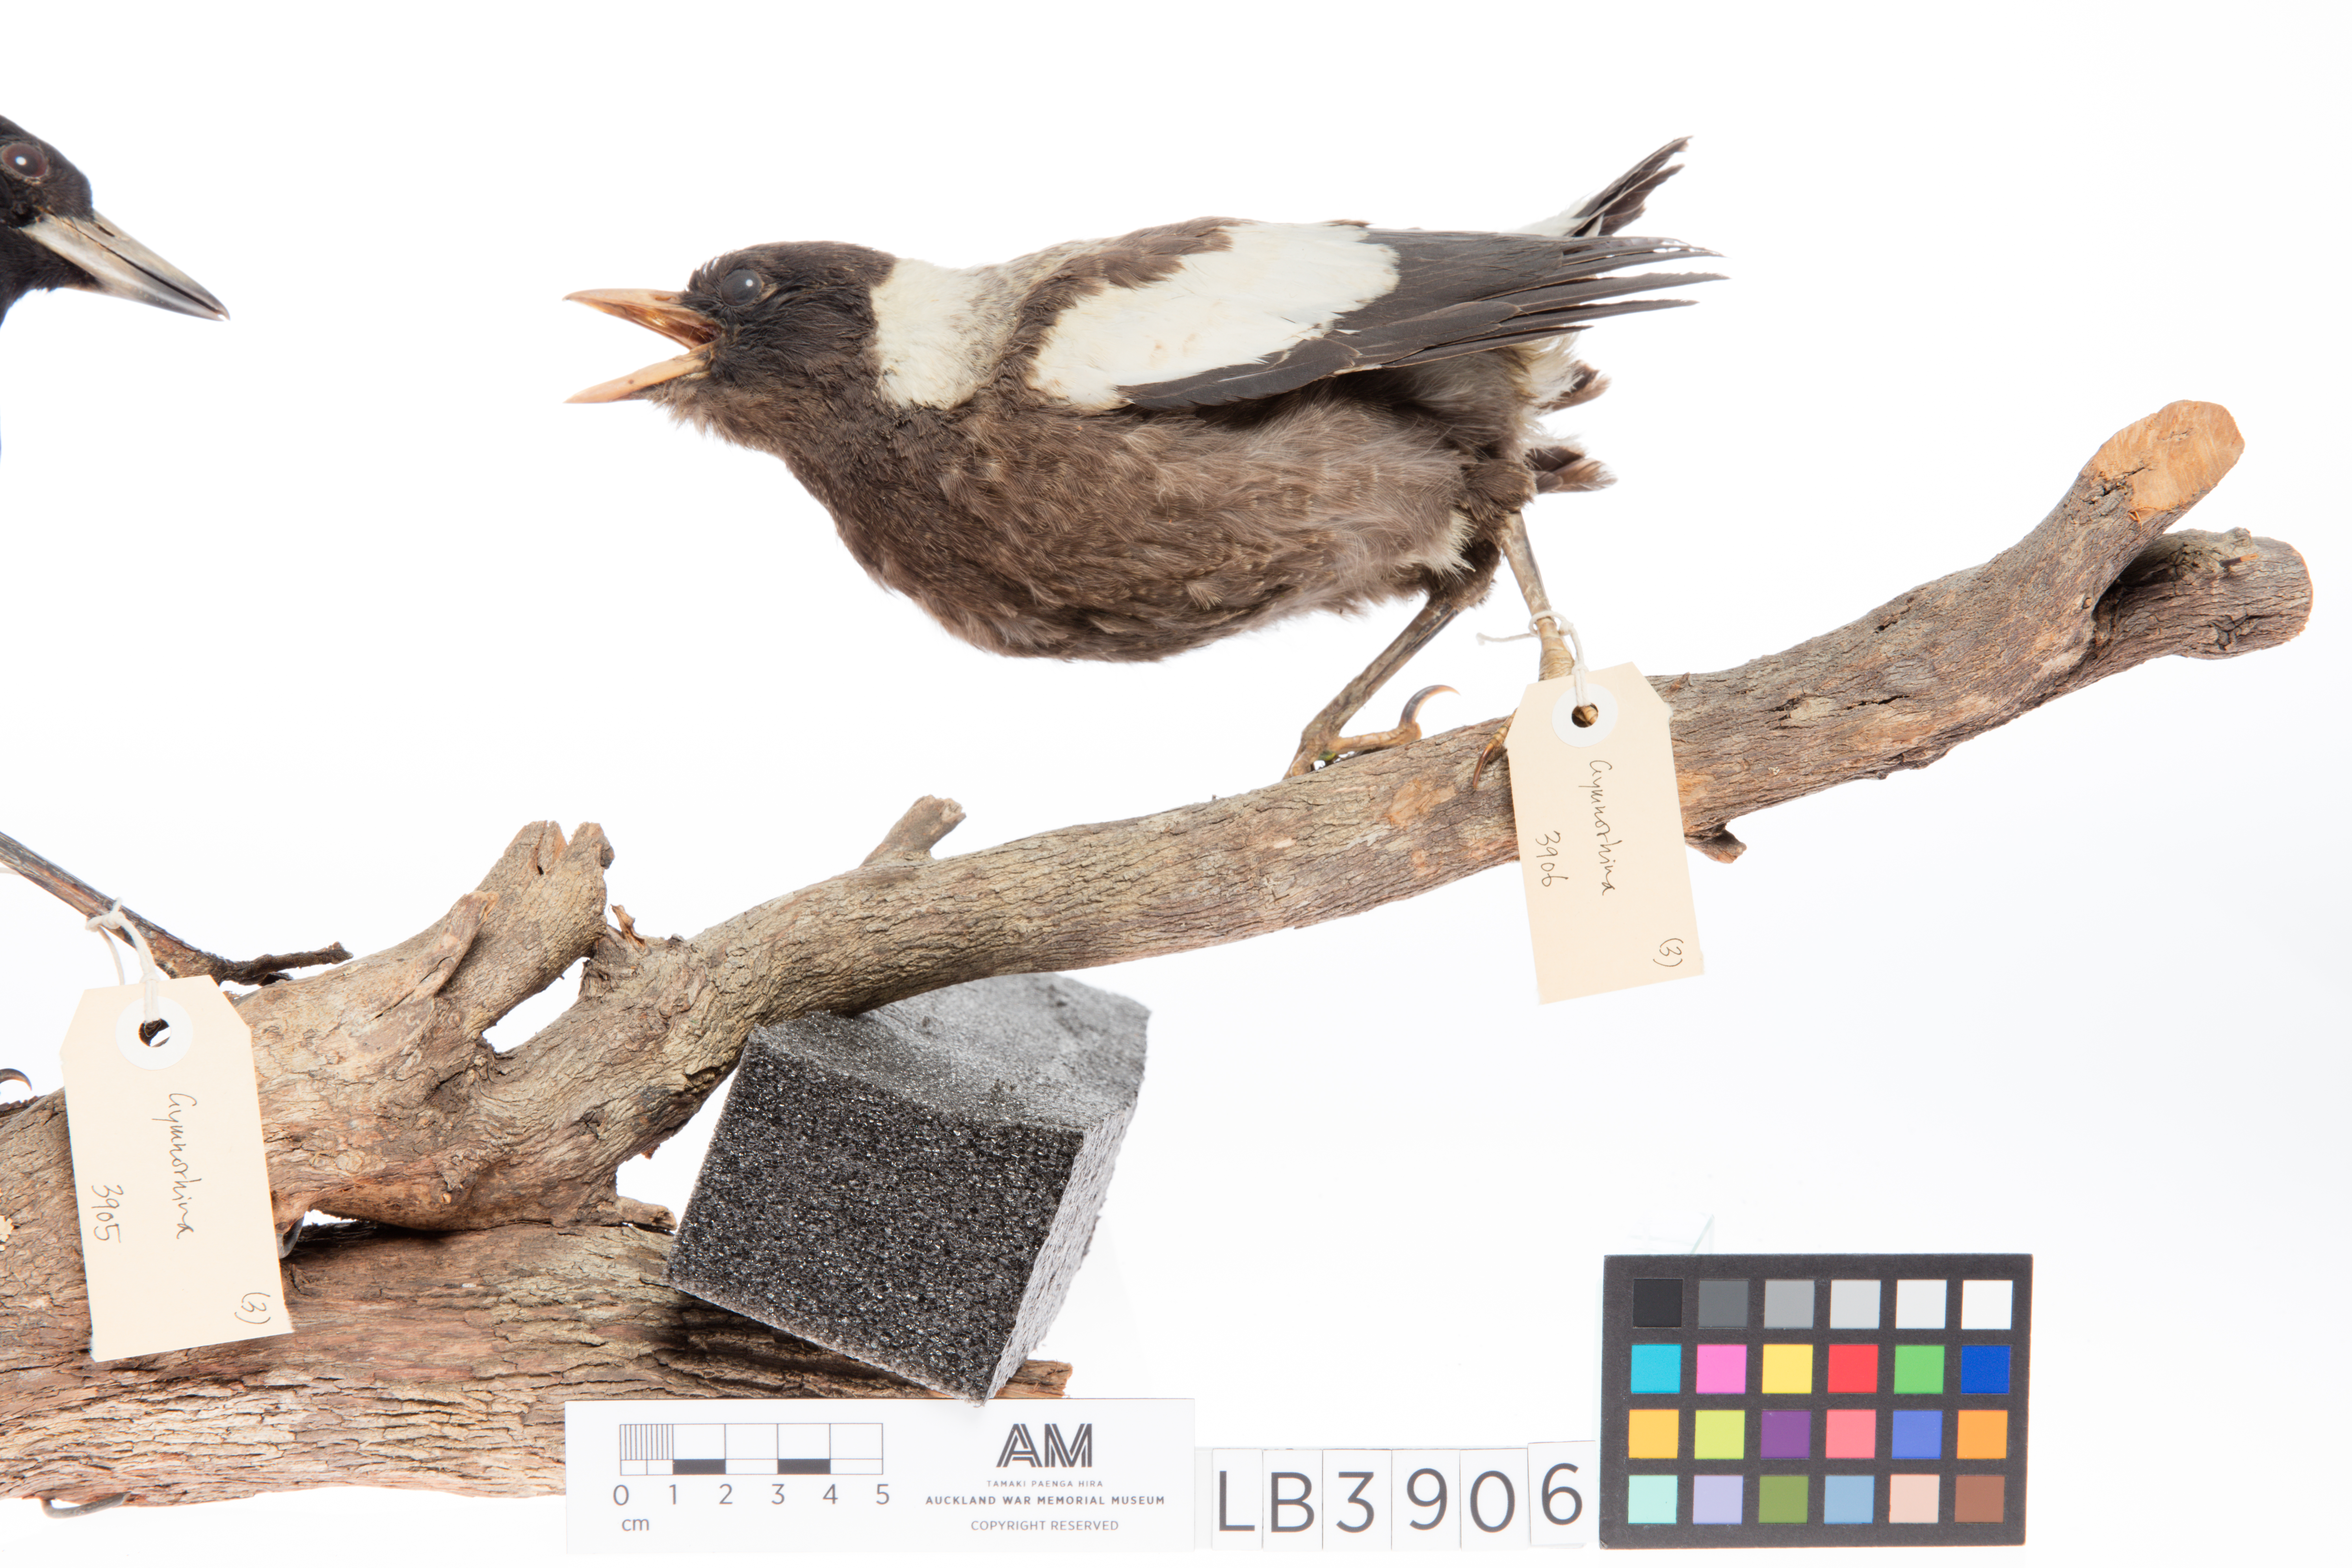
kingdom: Animalia
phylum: Chordata
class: Aves
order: Passeriformes
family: Cracticidae
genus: Gymnorhina
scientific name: Gymnorhina tibicen
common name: Australian magpie
